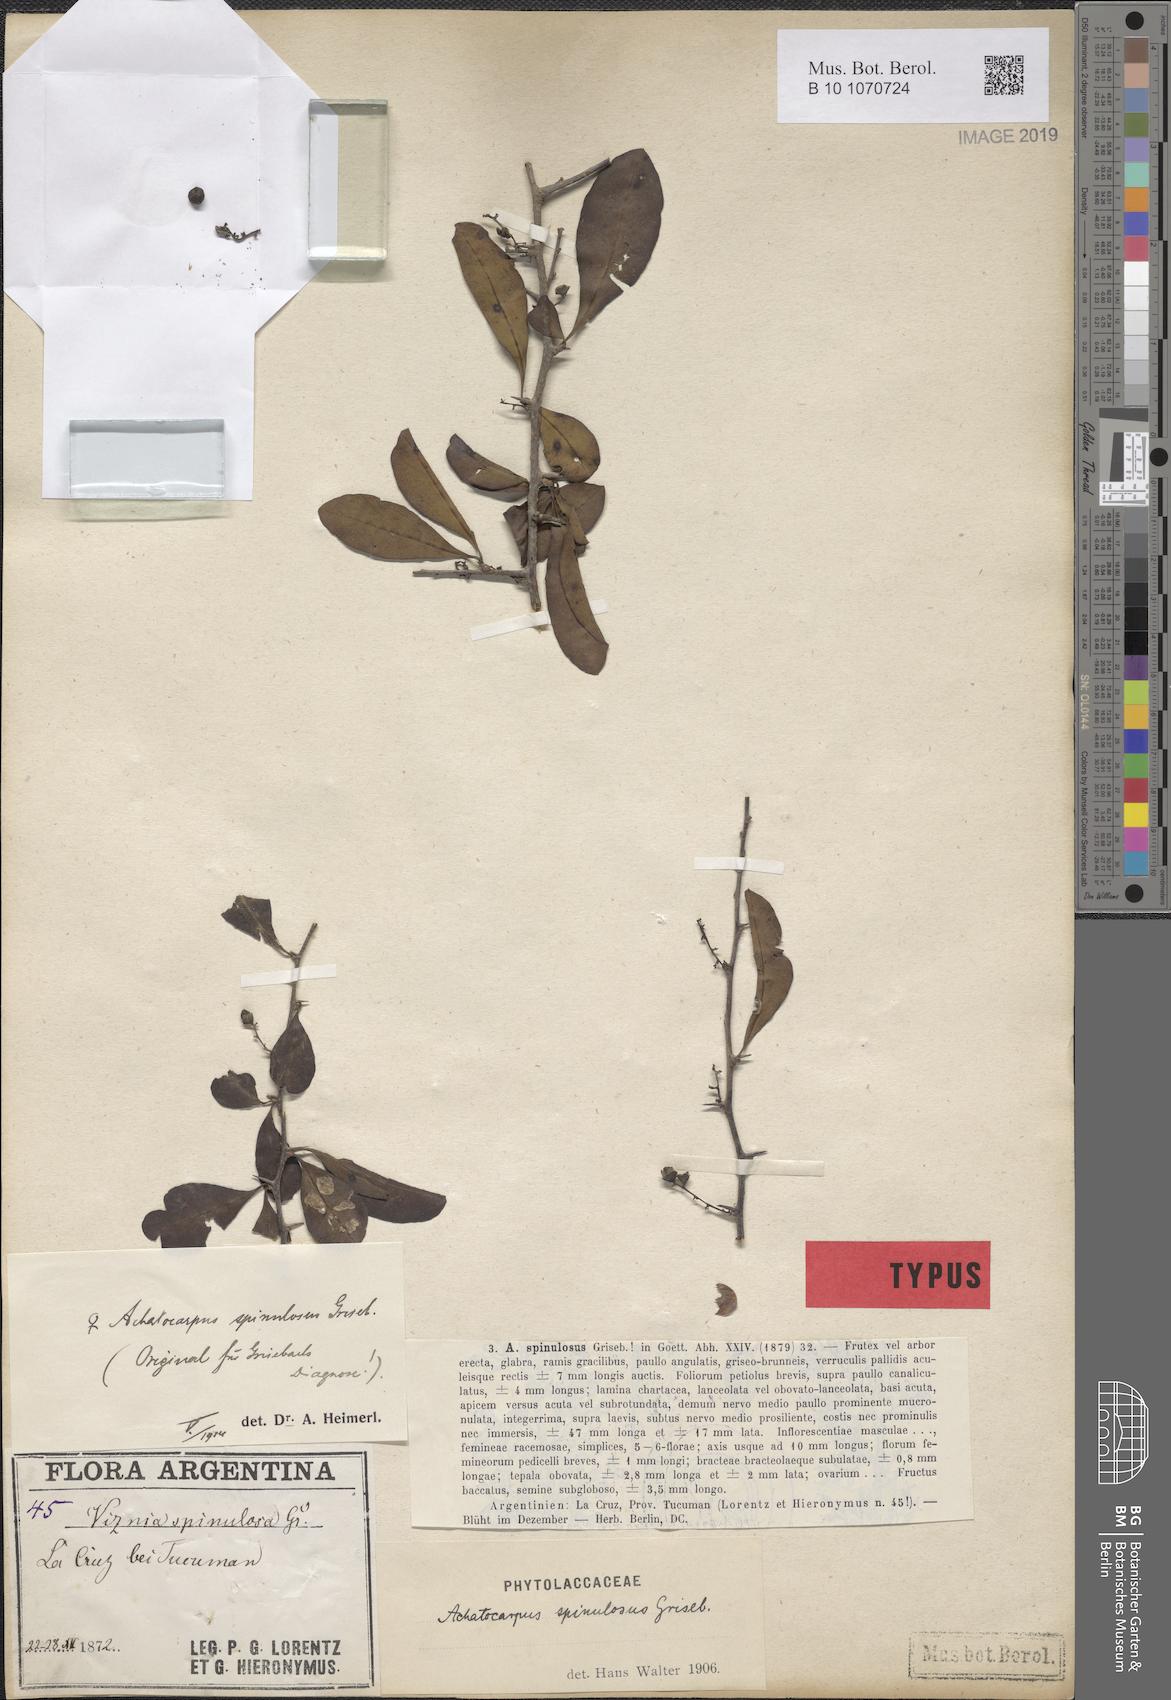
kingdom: Plantae
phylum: Tracheophyta
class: Magnoliopsida
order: Caryophyllales
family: Achatocarpaceae
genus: Achatocarpus
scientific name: Achatocarpus praecox
